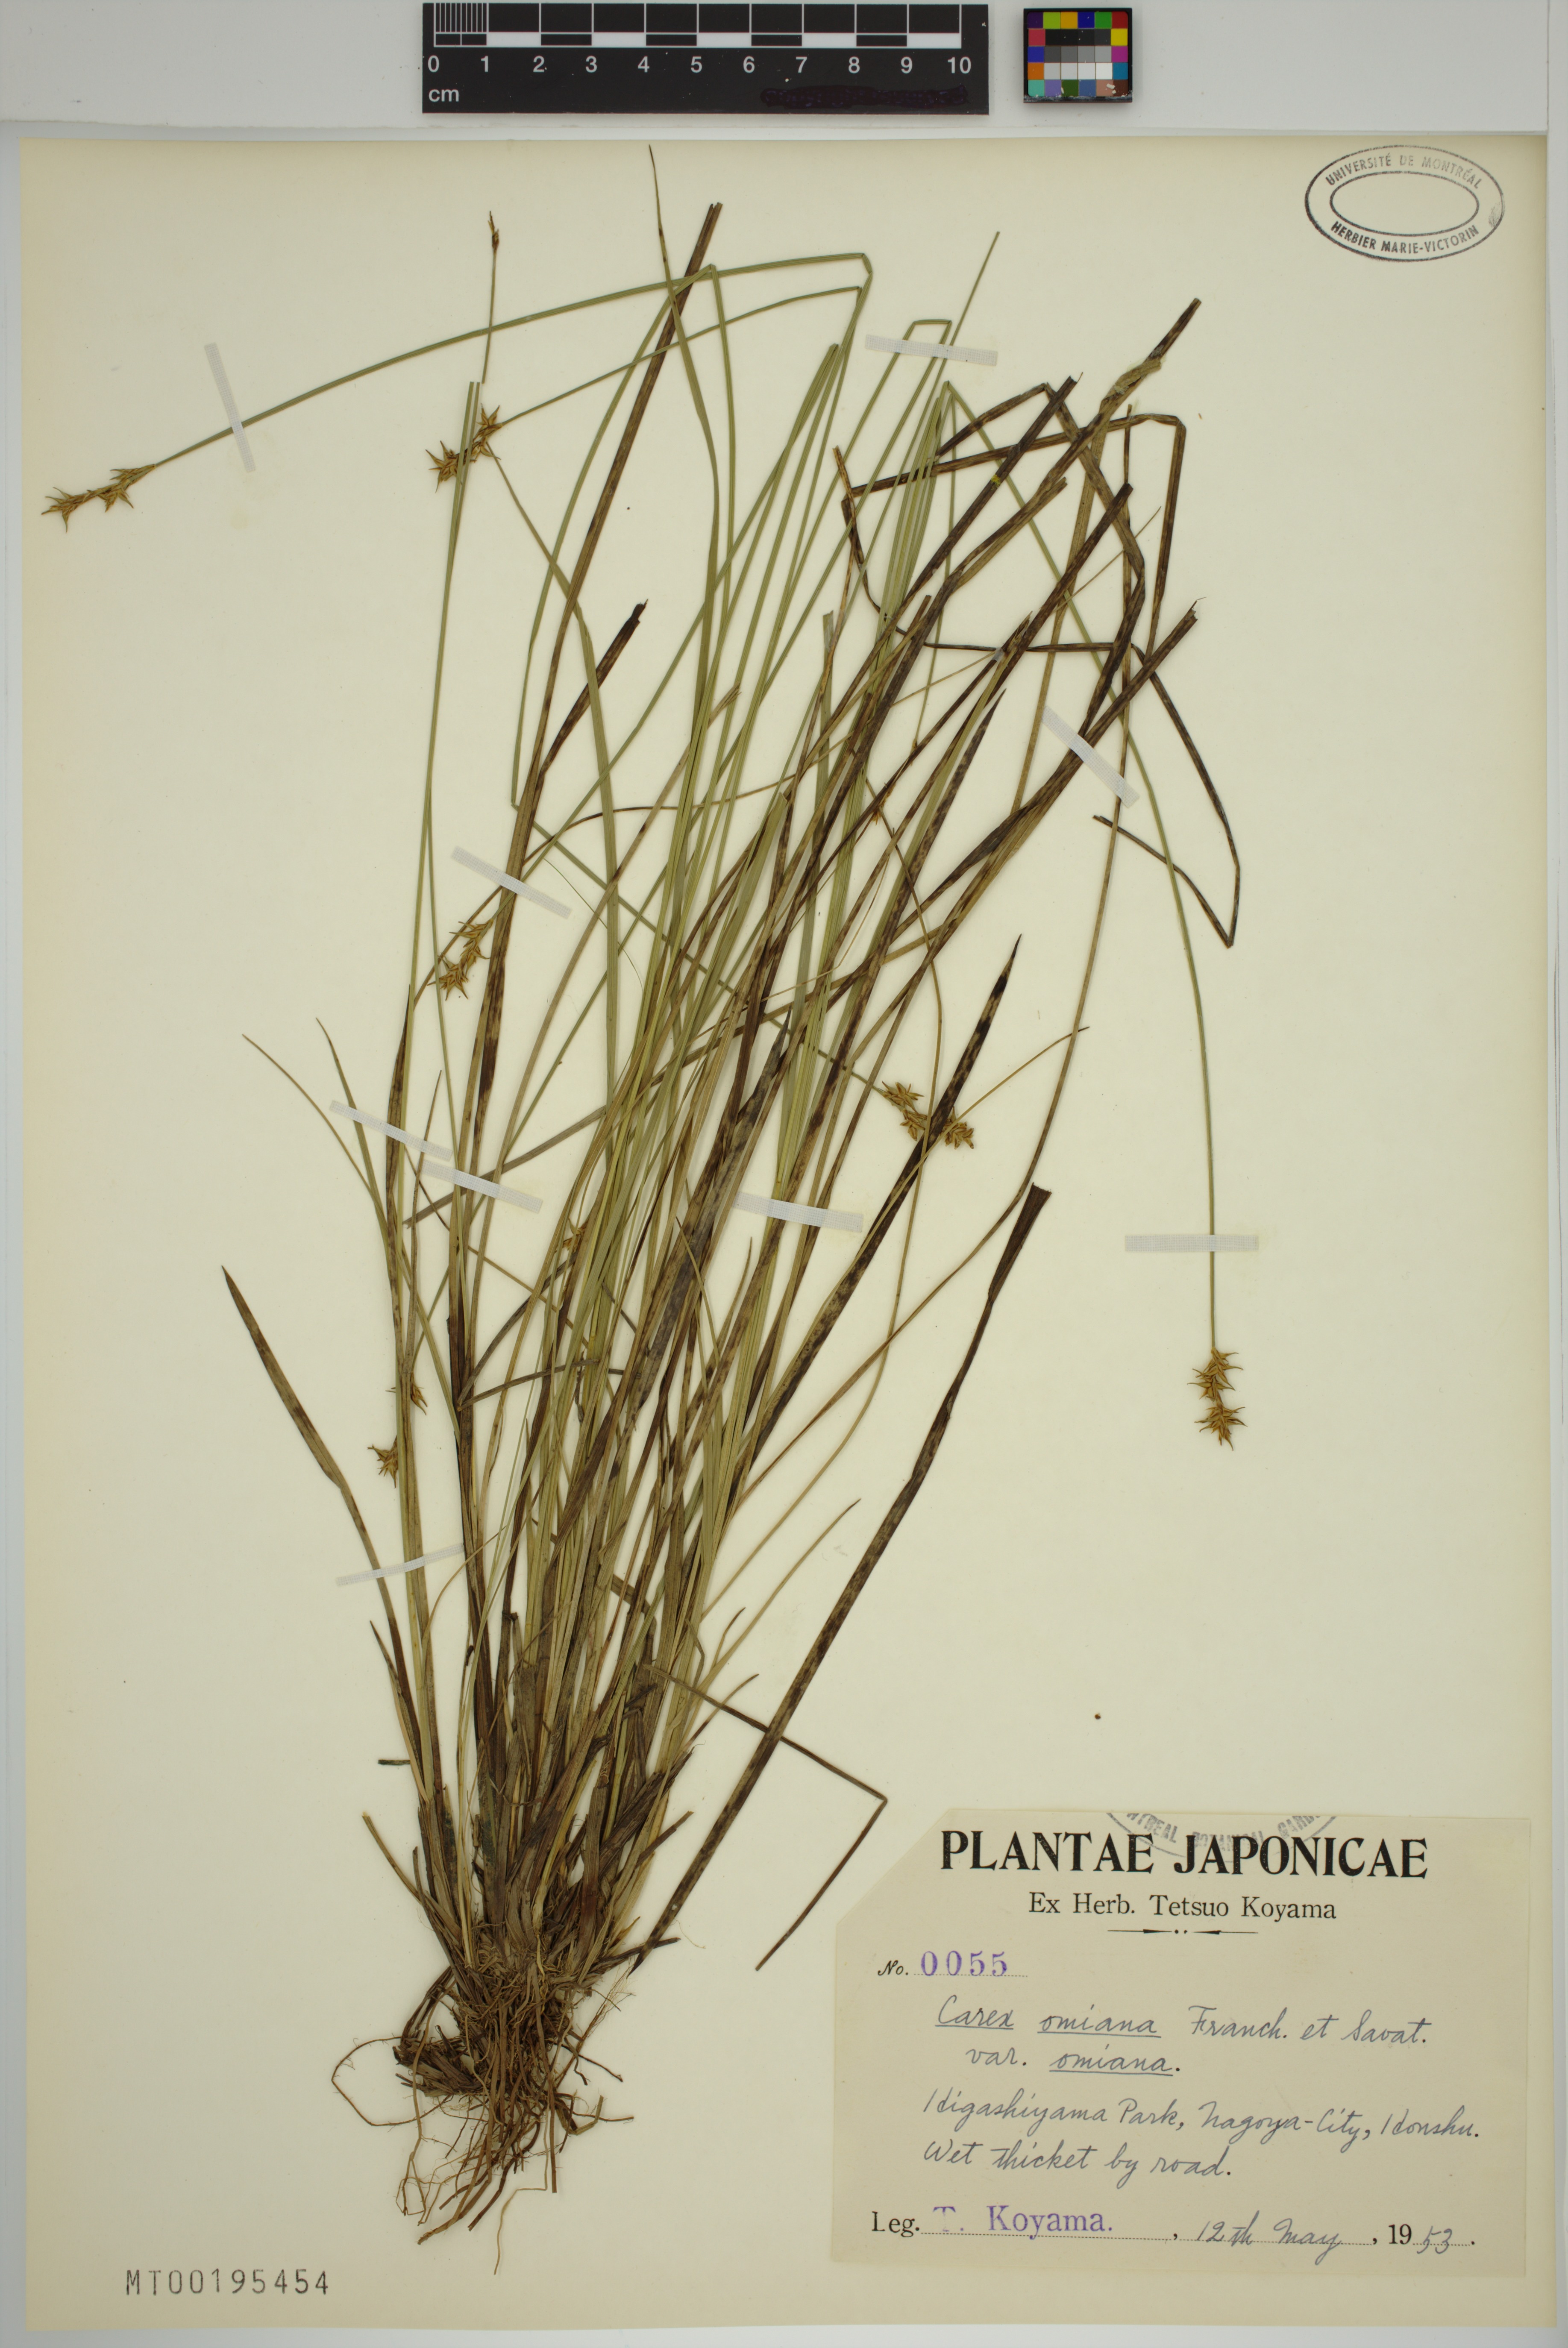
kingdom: Plantae
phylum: Tracheophyta
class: Liliopsida
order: Poales
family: Cyperaceae
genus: Carex
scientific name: Carex omiana
